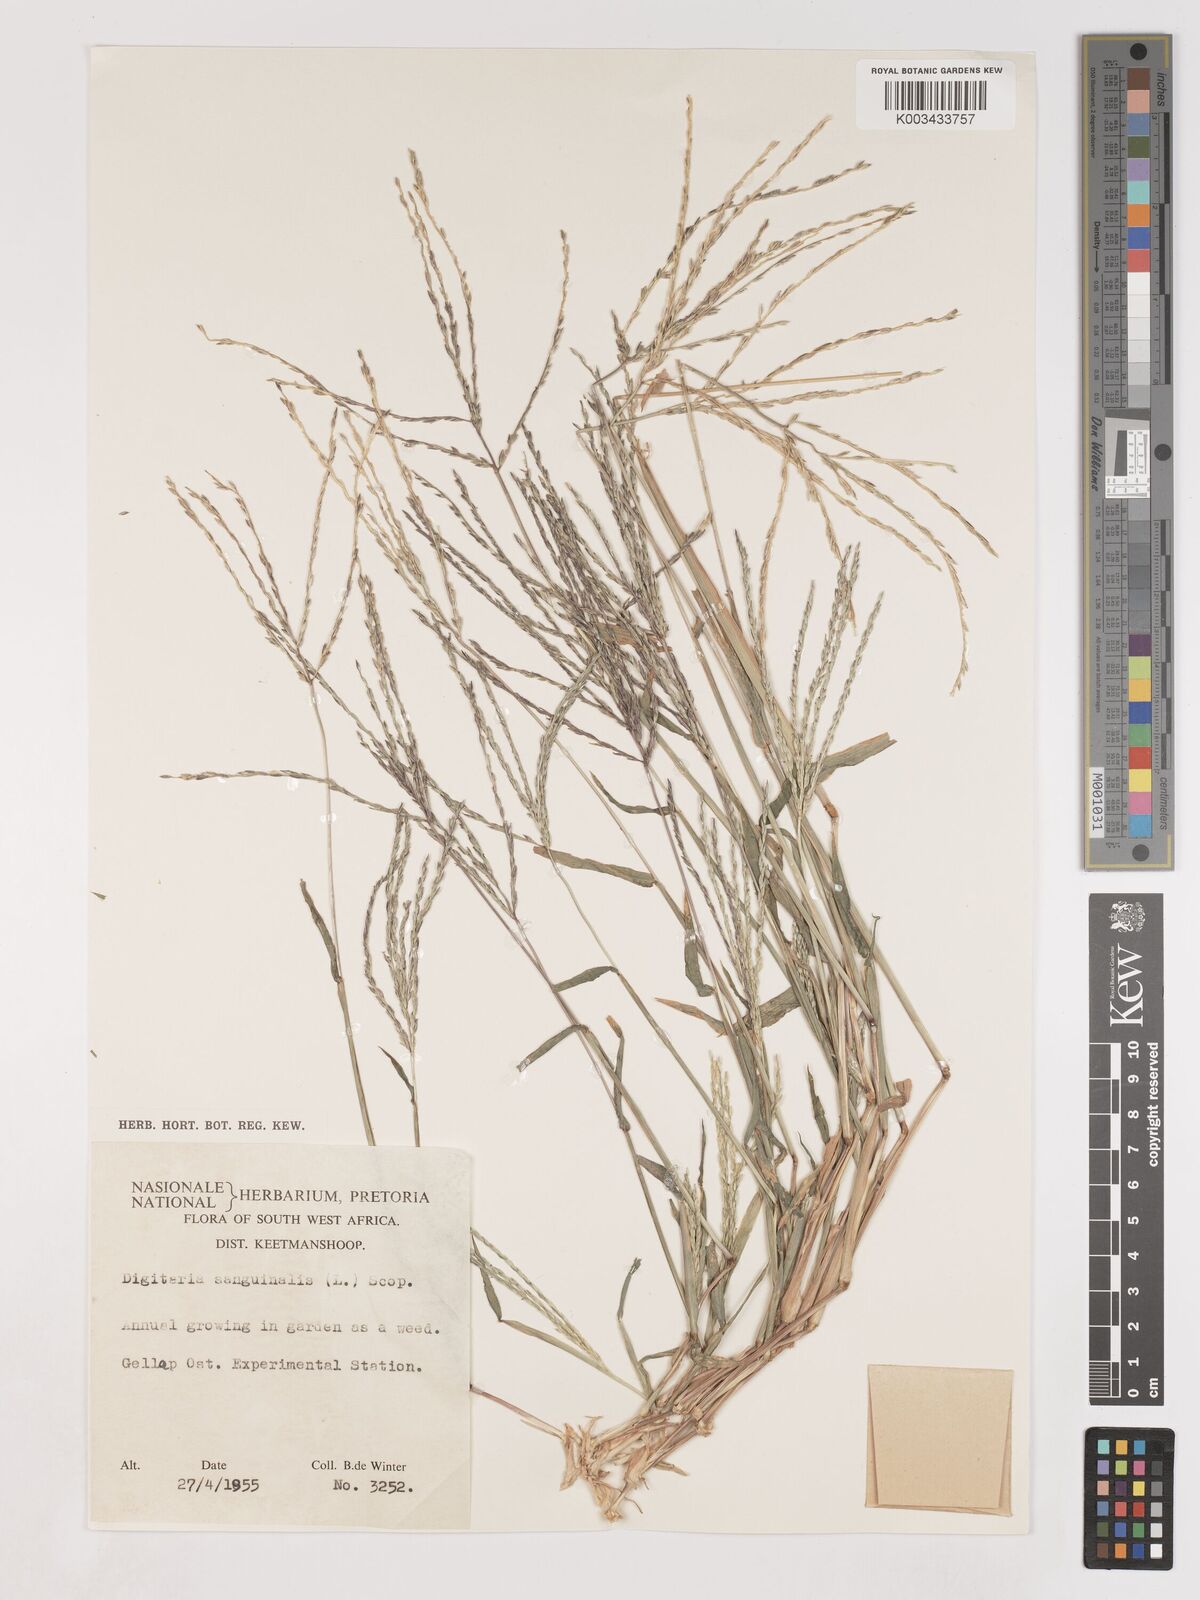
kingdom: Plantae
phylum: Tracheophyta
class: Liliopsida
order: Poales
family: Poaceae
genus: Digitaria
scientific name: Digitaria ciliaris
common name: Tropical finger-grass
